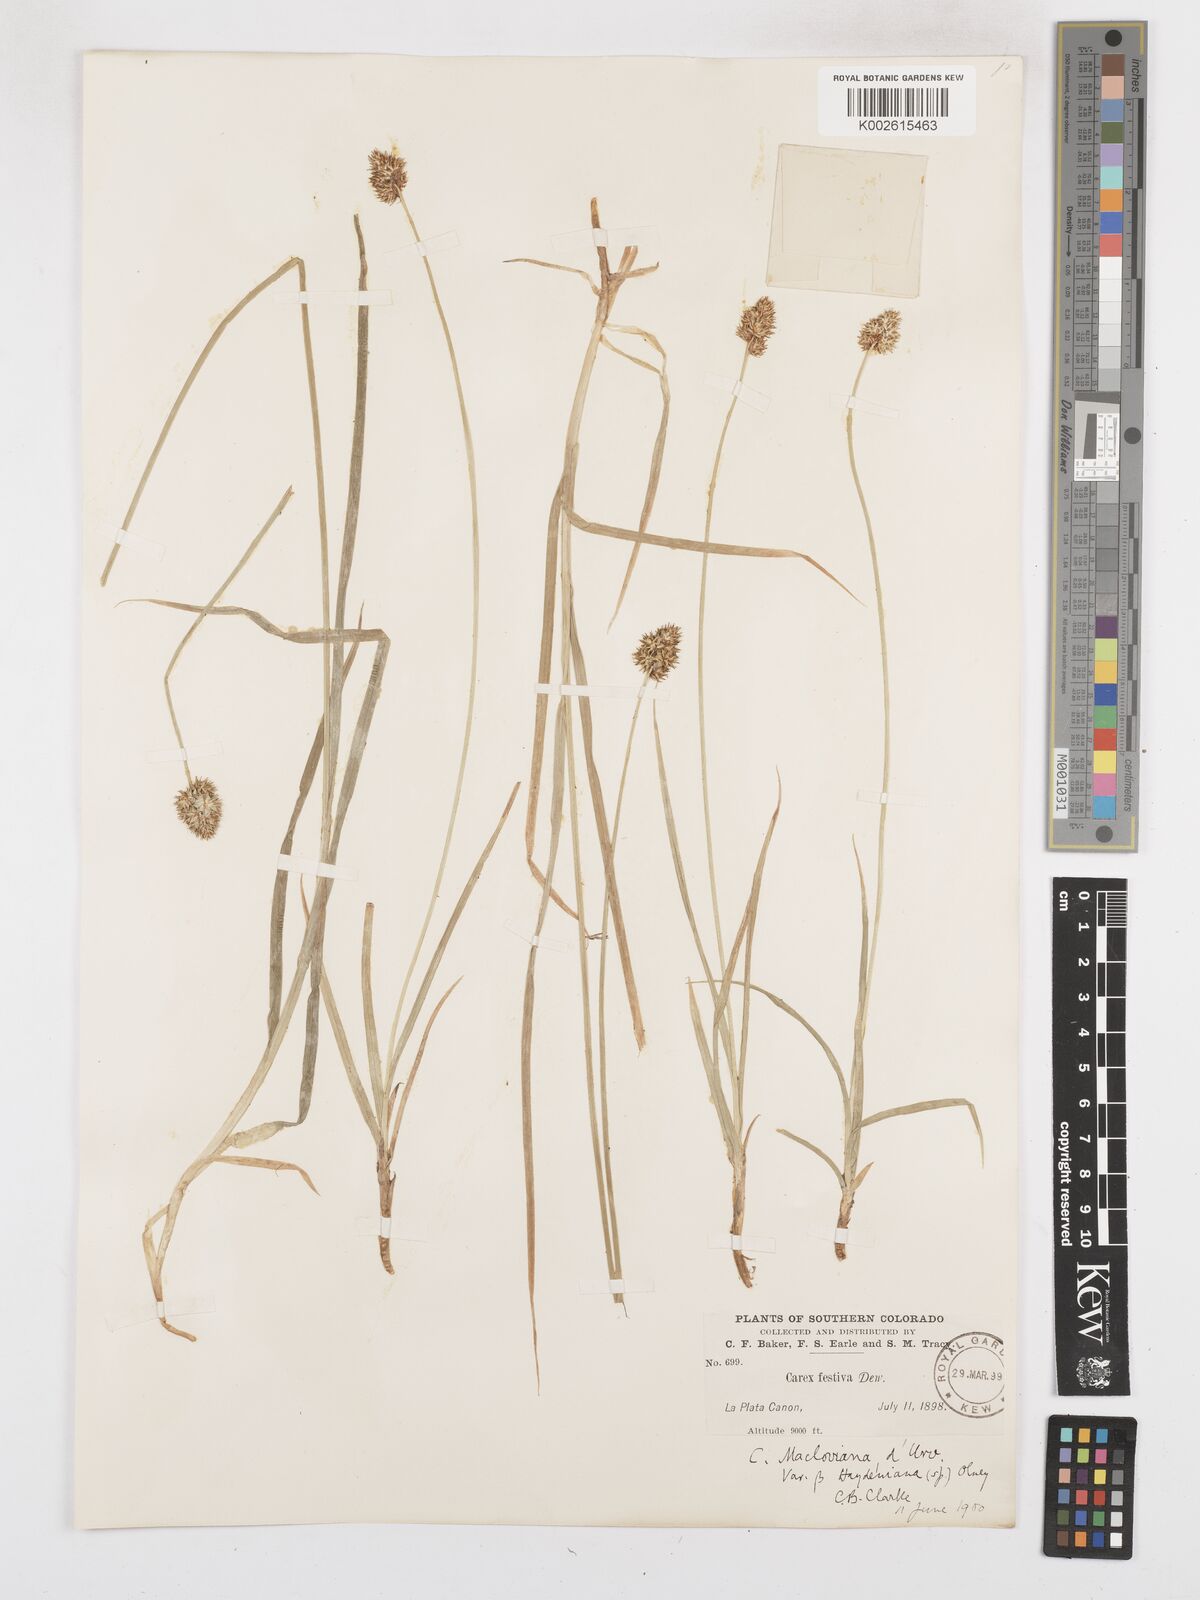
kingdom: Plantae
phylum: Tracheophyta
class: Liliopsida
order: Poales
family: Cyperaceae
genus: Carex
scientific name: Carex haydeniana
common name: Cloud sedge
